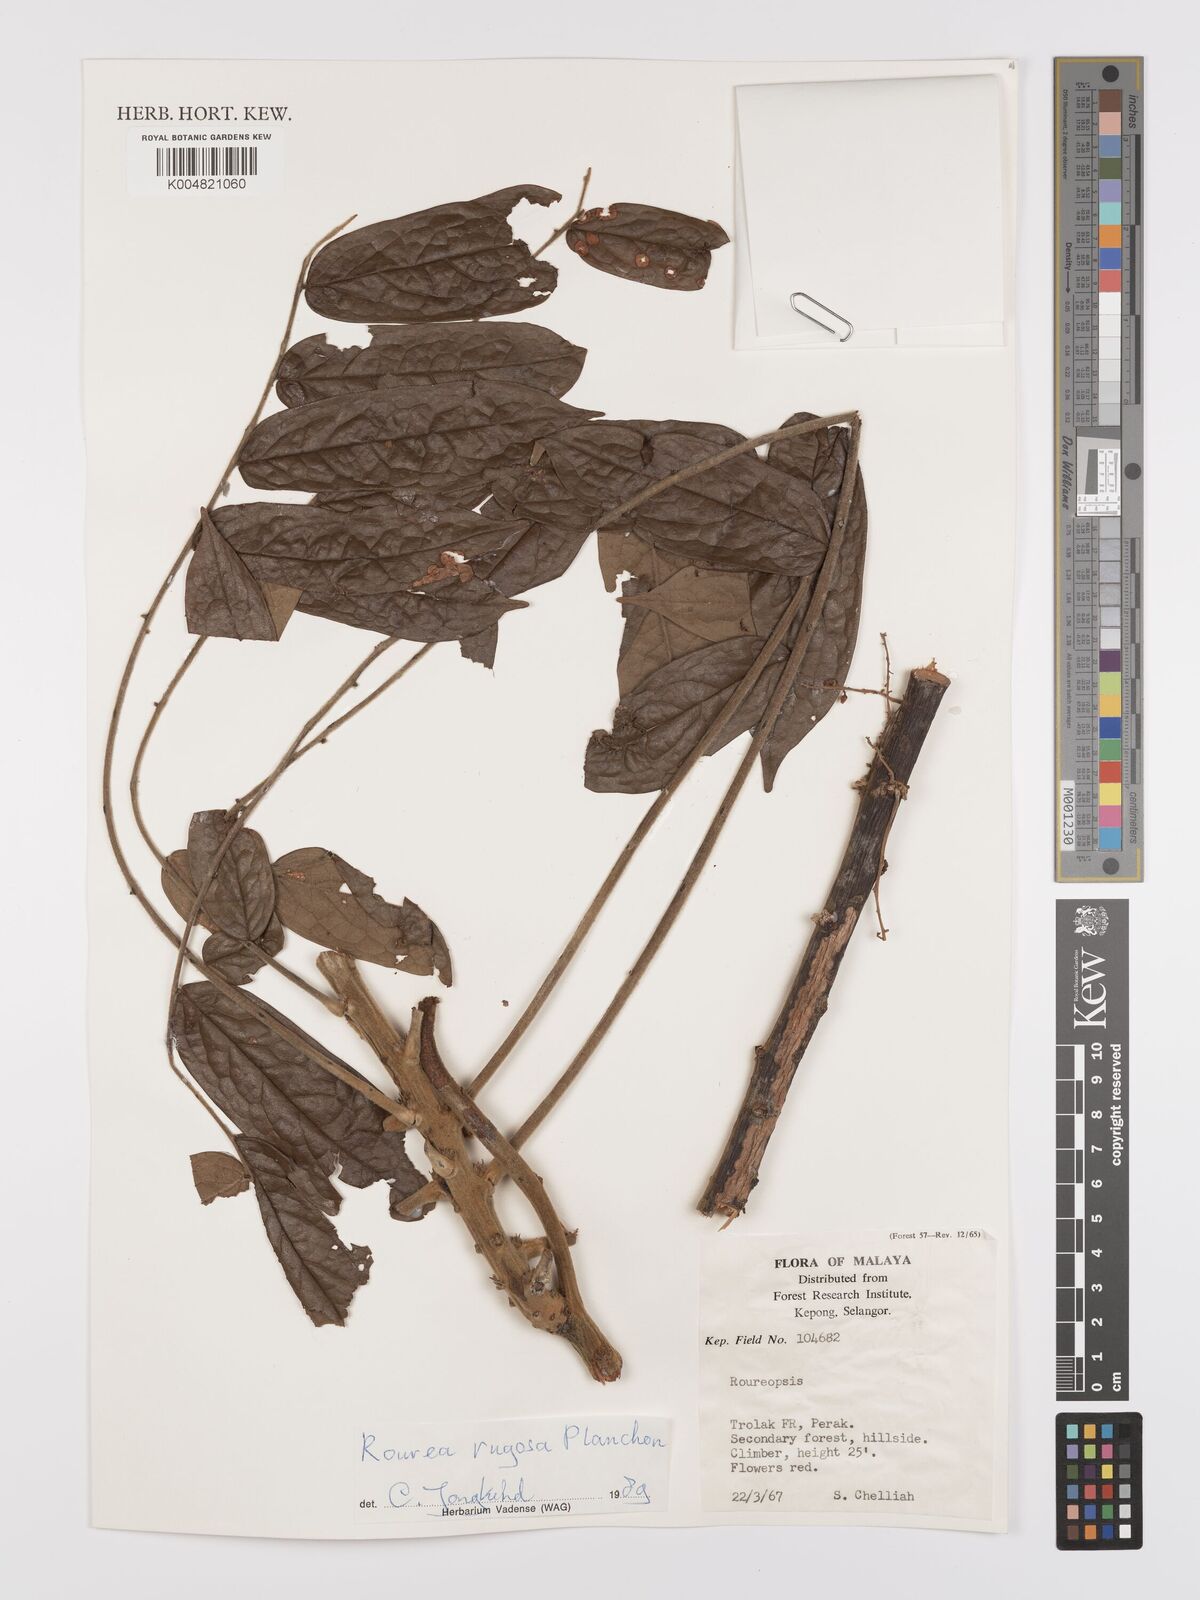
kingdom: Plantae
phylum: Tracheophyta
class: Magnoliopsida
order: Oxalidales
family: Connaraceae
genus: Rourea
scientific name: Rourea rugosa
